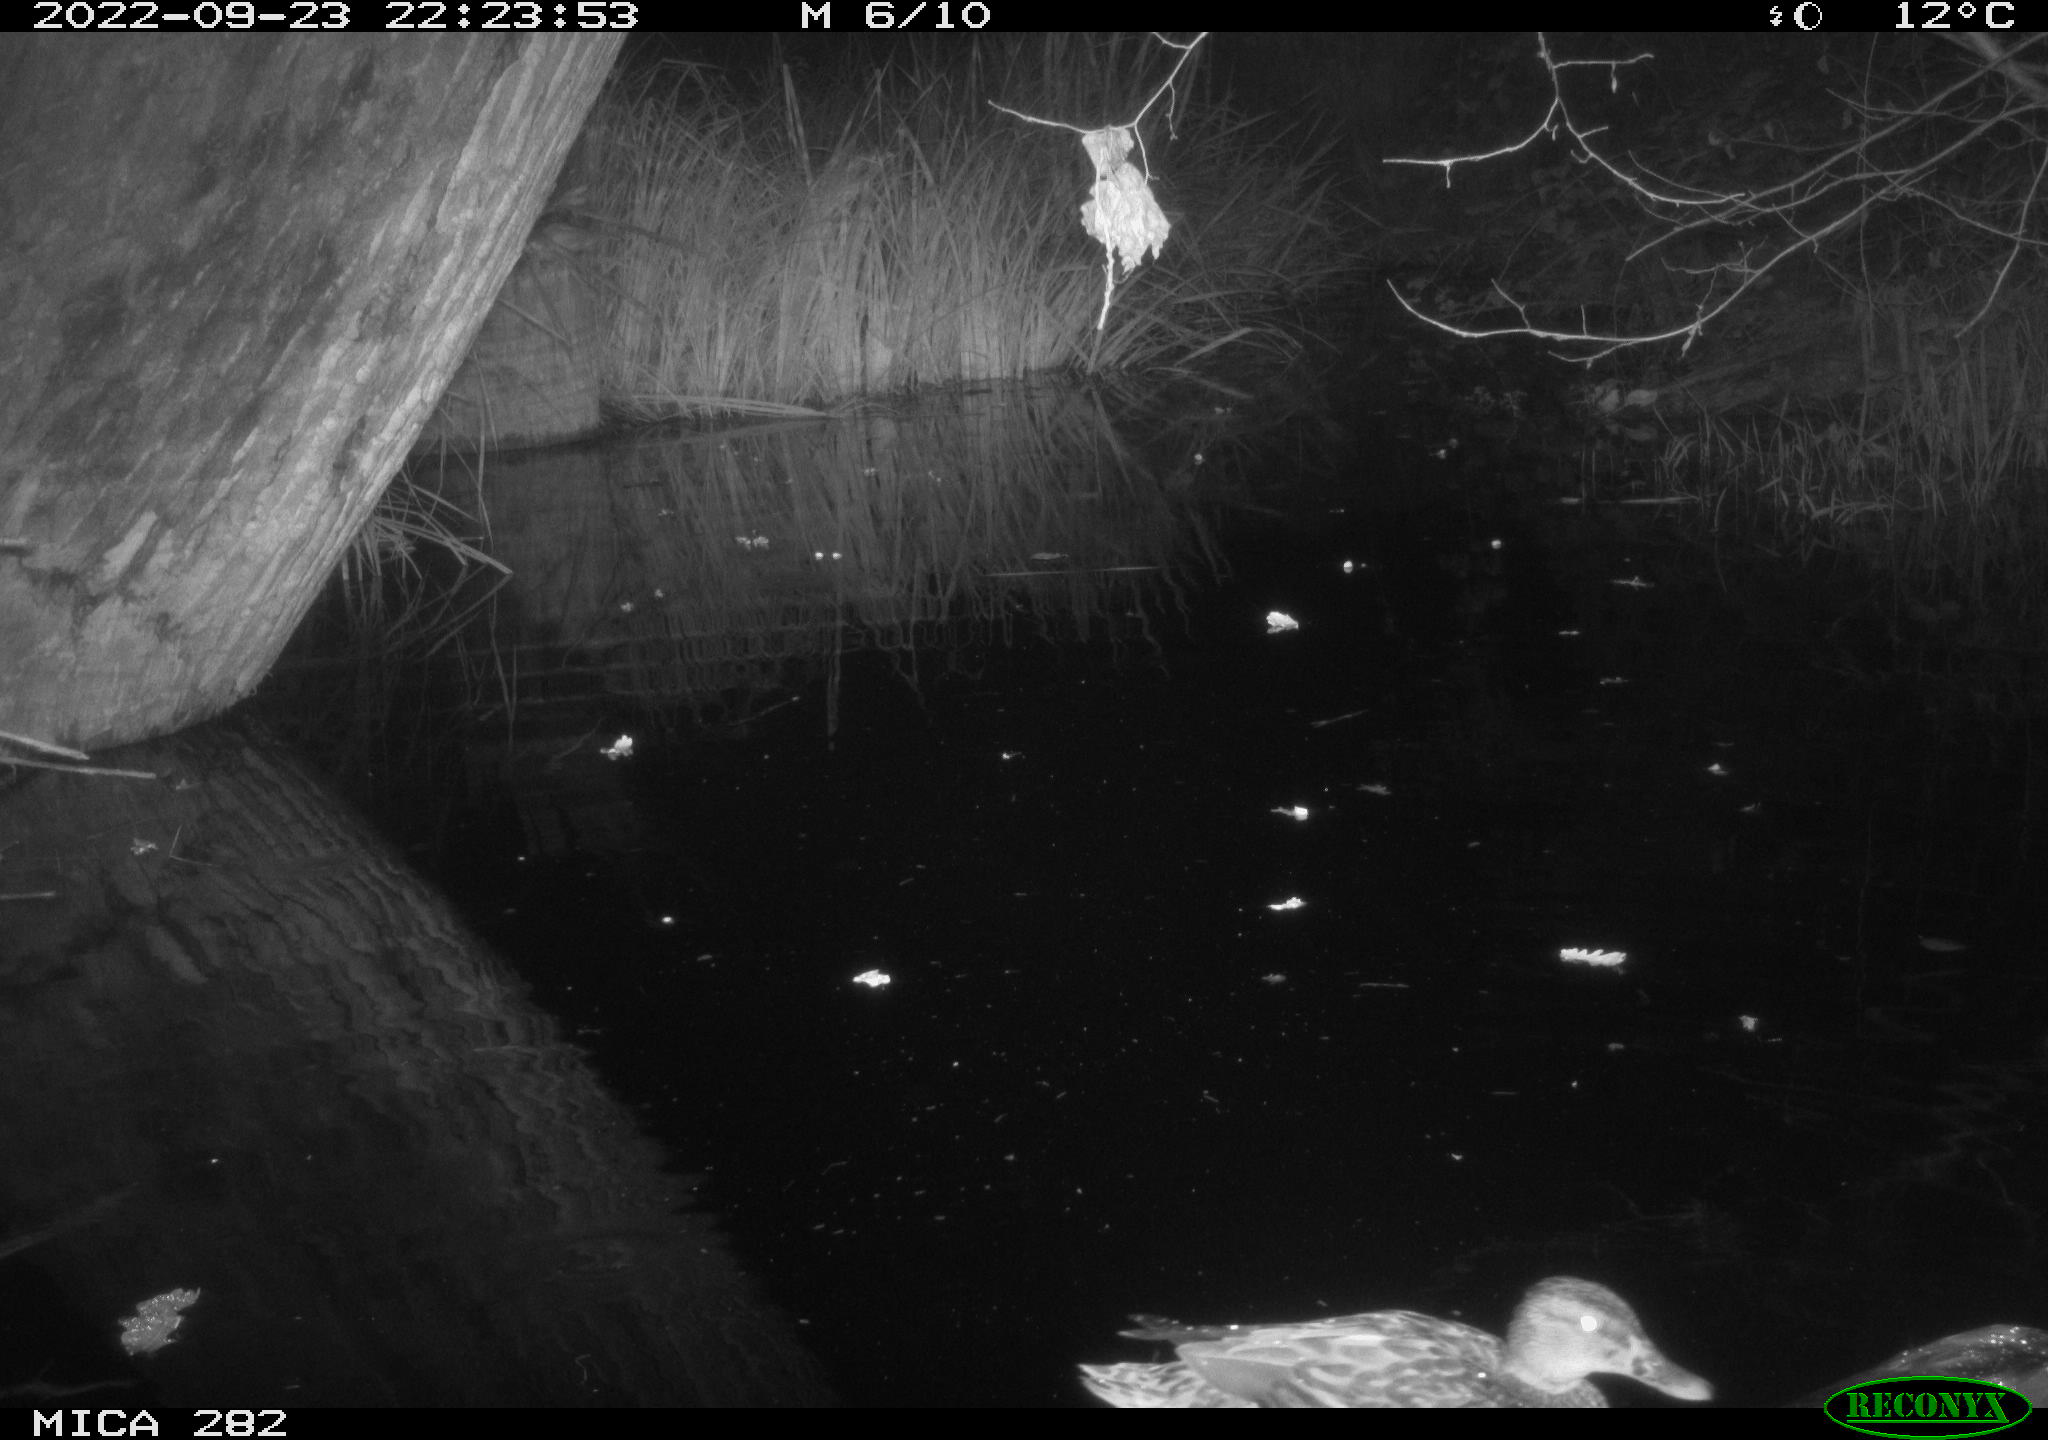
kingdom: Animalia
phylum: Chordata
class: Aves
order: Anseriformes
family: Anatidae
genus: Anas
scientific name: Anas
